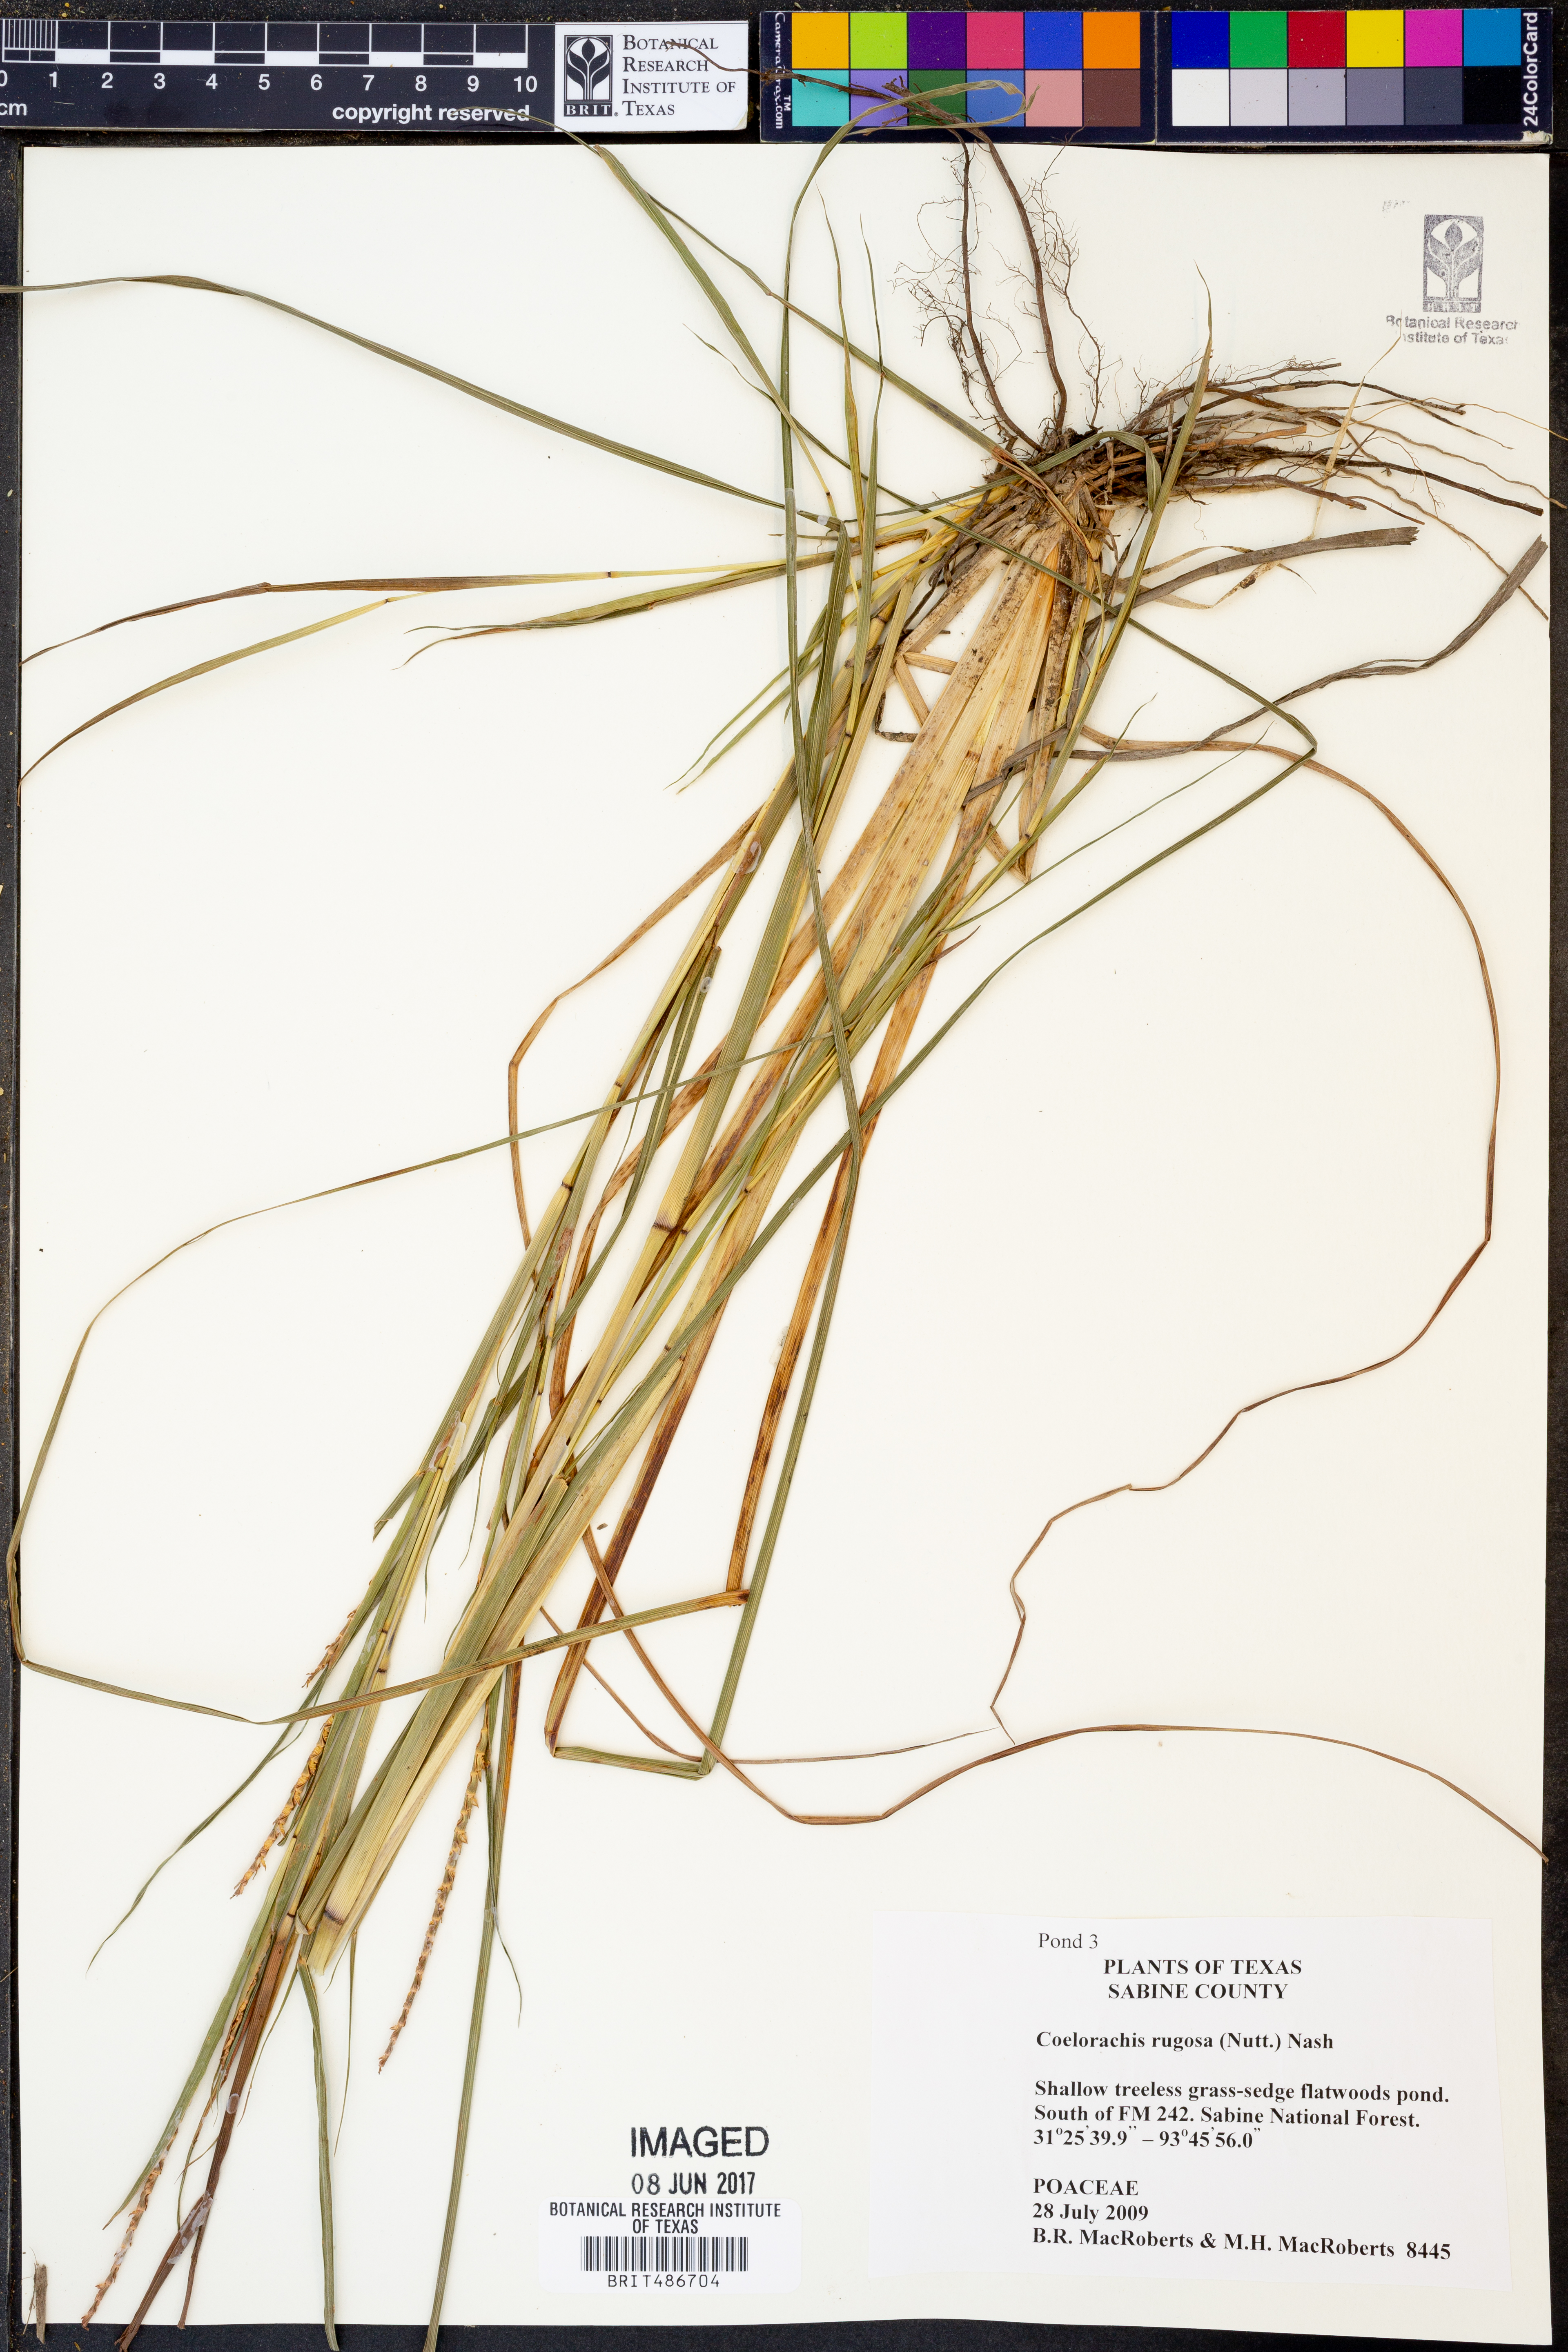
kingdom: Plantae
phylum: Tracheophyta
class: Liliopsida
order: Poales
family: Poaceae
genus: Rottboellia
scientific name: Rottboellia rugosa
